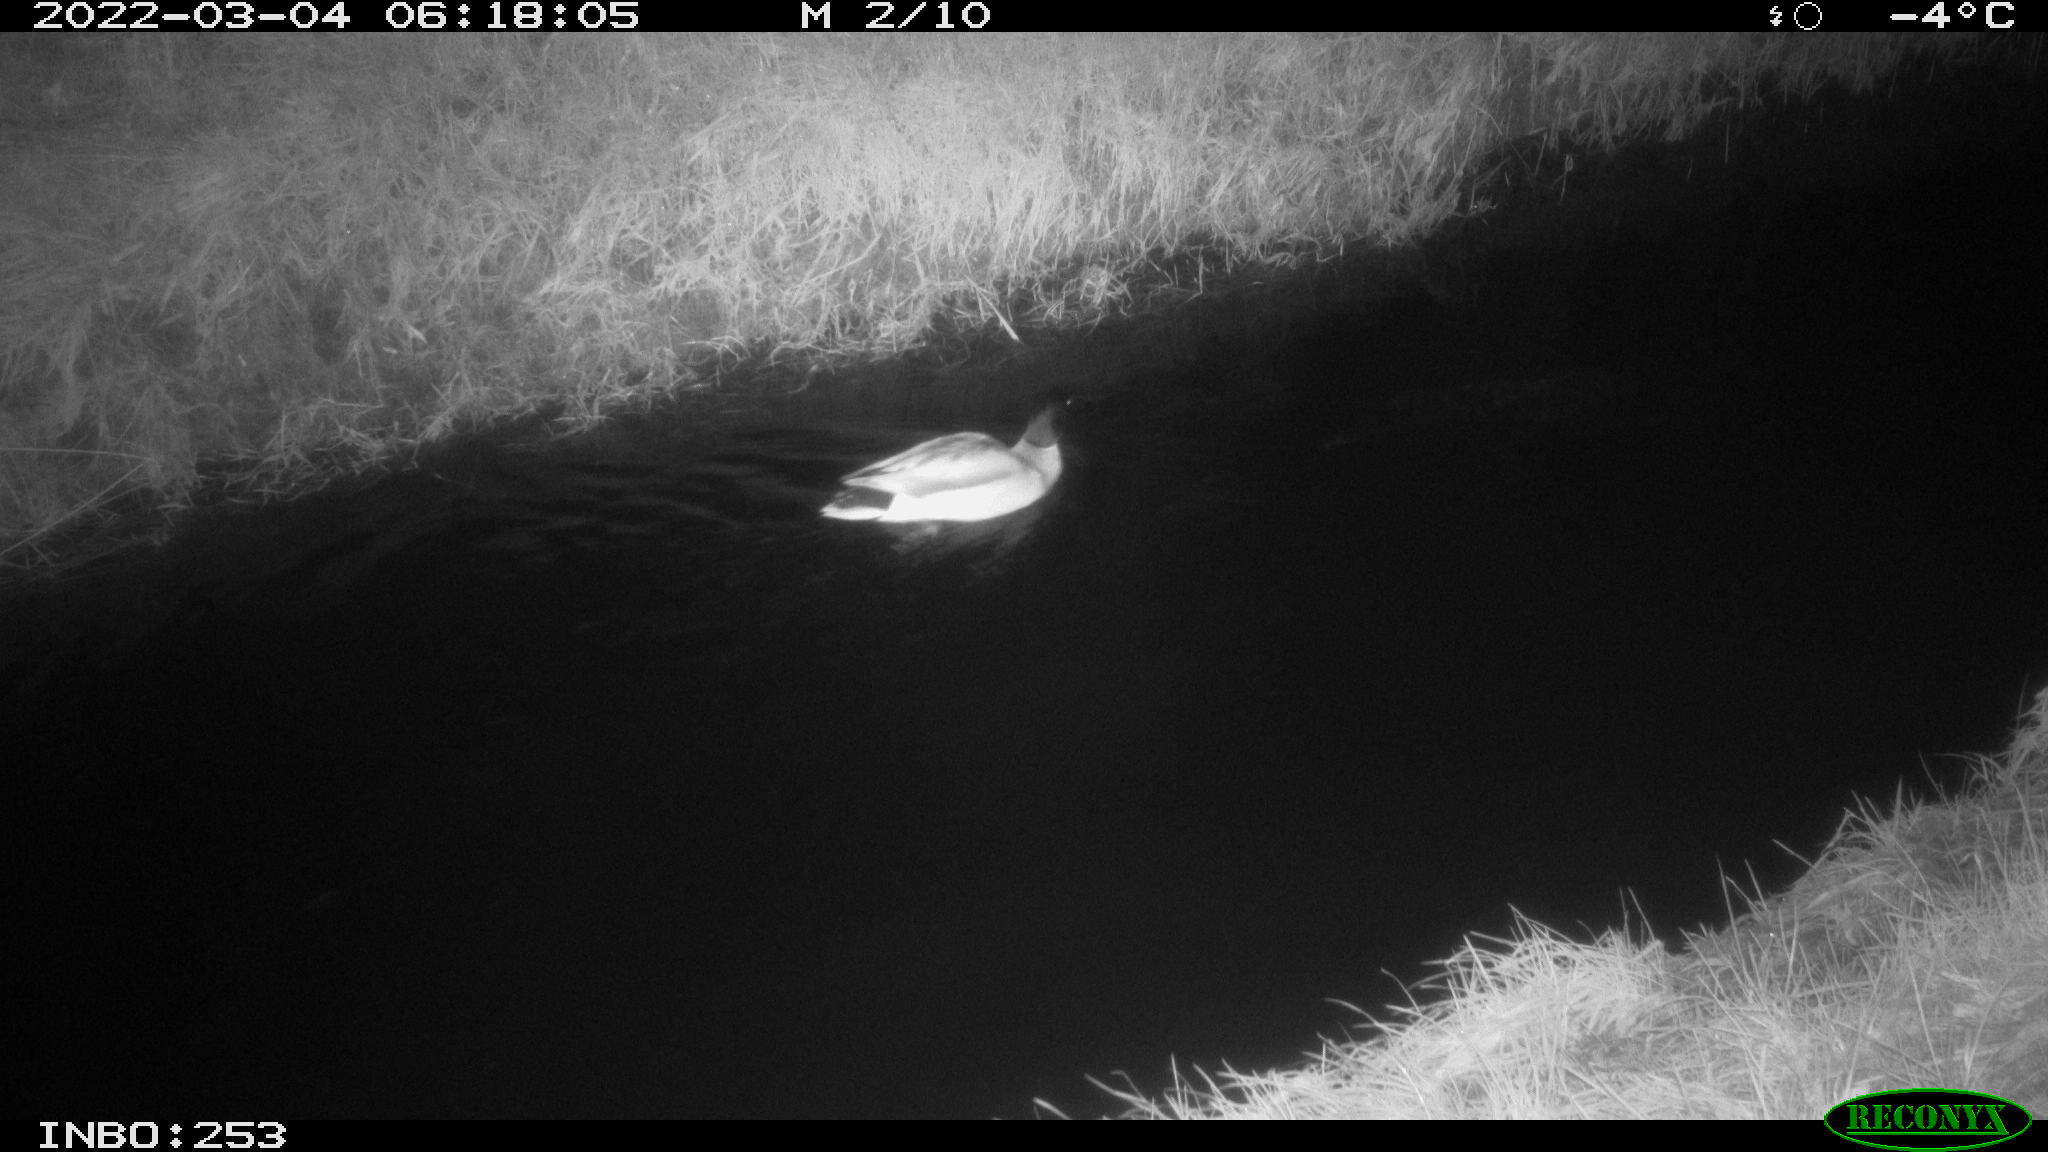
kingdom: Animalia
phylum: Chordata
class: Aves
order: Anseriformes
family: Anatidae
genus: Anas
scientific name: Anas platyrhynchos
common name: Mallard
